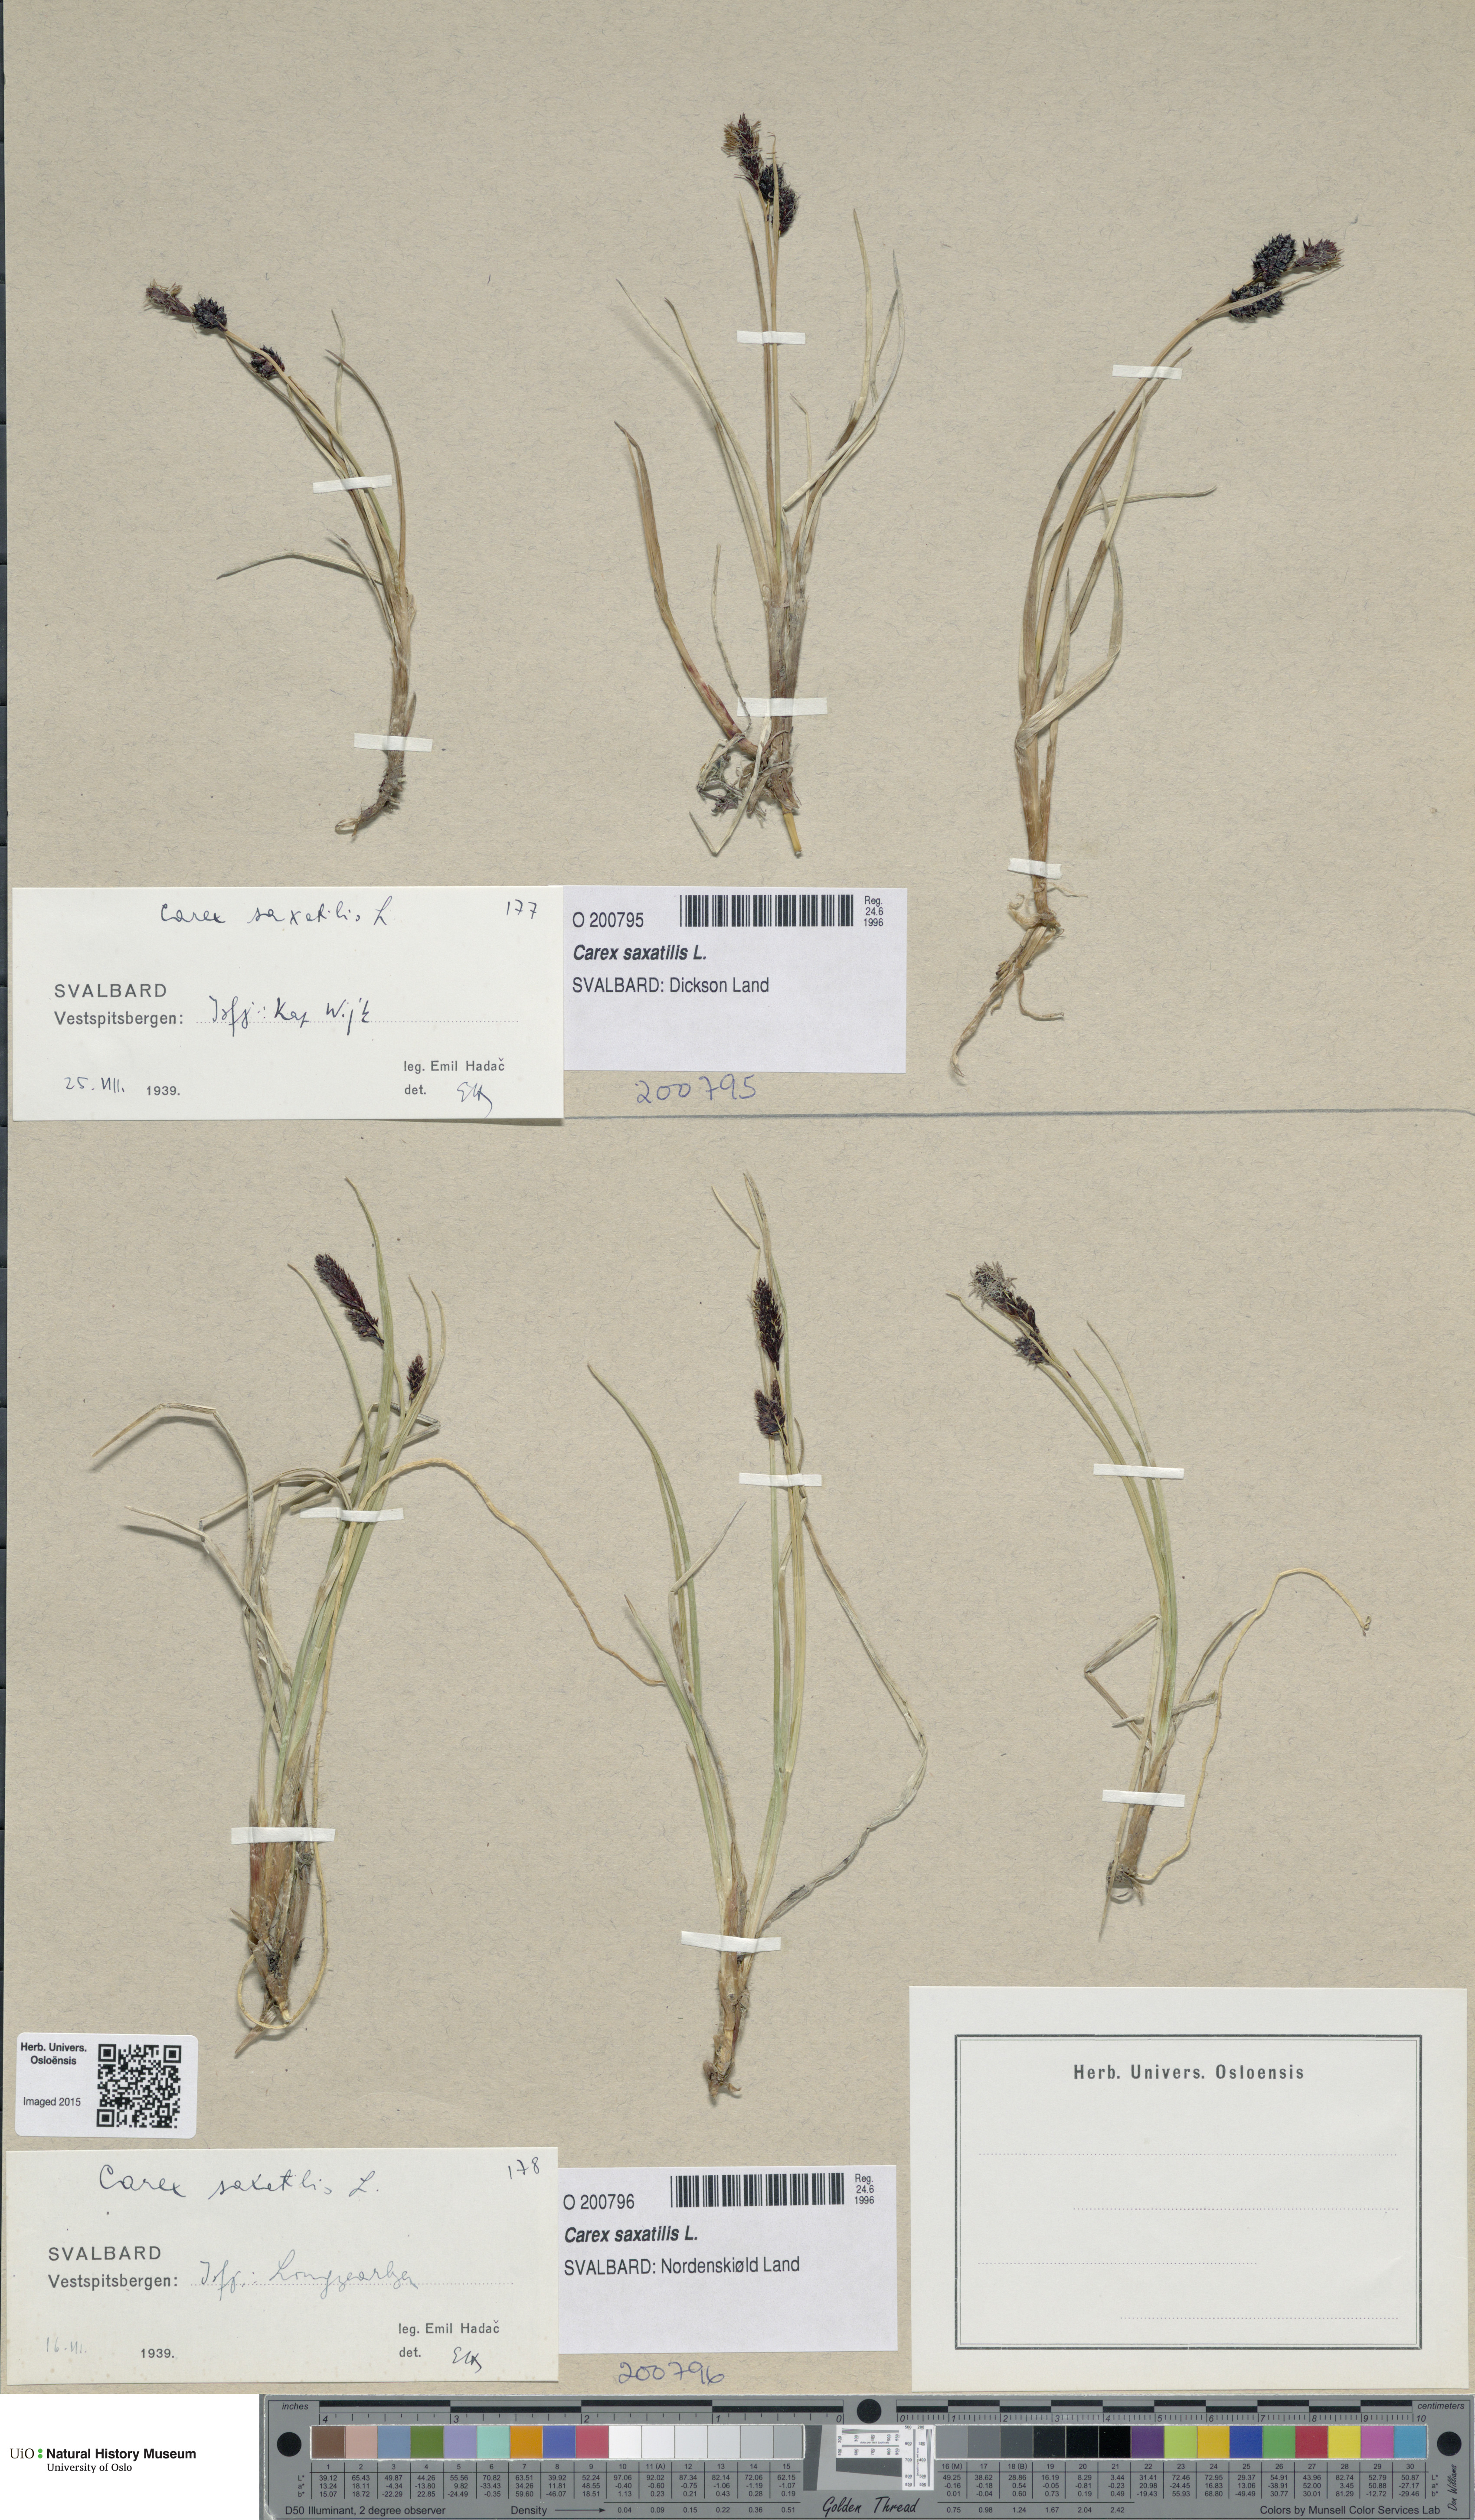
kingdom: Plantae
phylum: Tracheophyta
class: Liliopsida
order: Poales
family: Cyperaceae
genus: Carex
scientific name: Carex saxatilis
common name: Russet sedge
